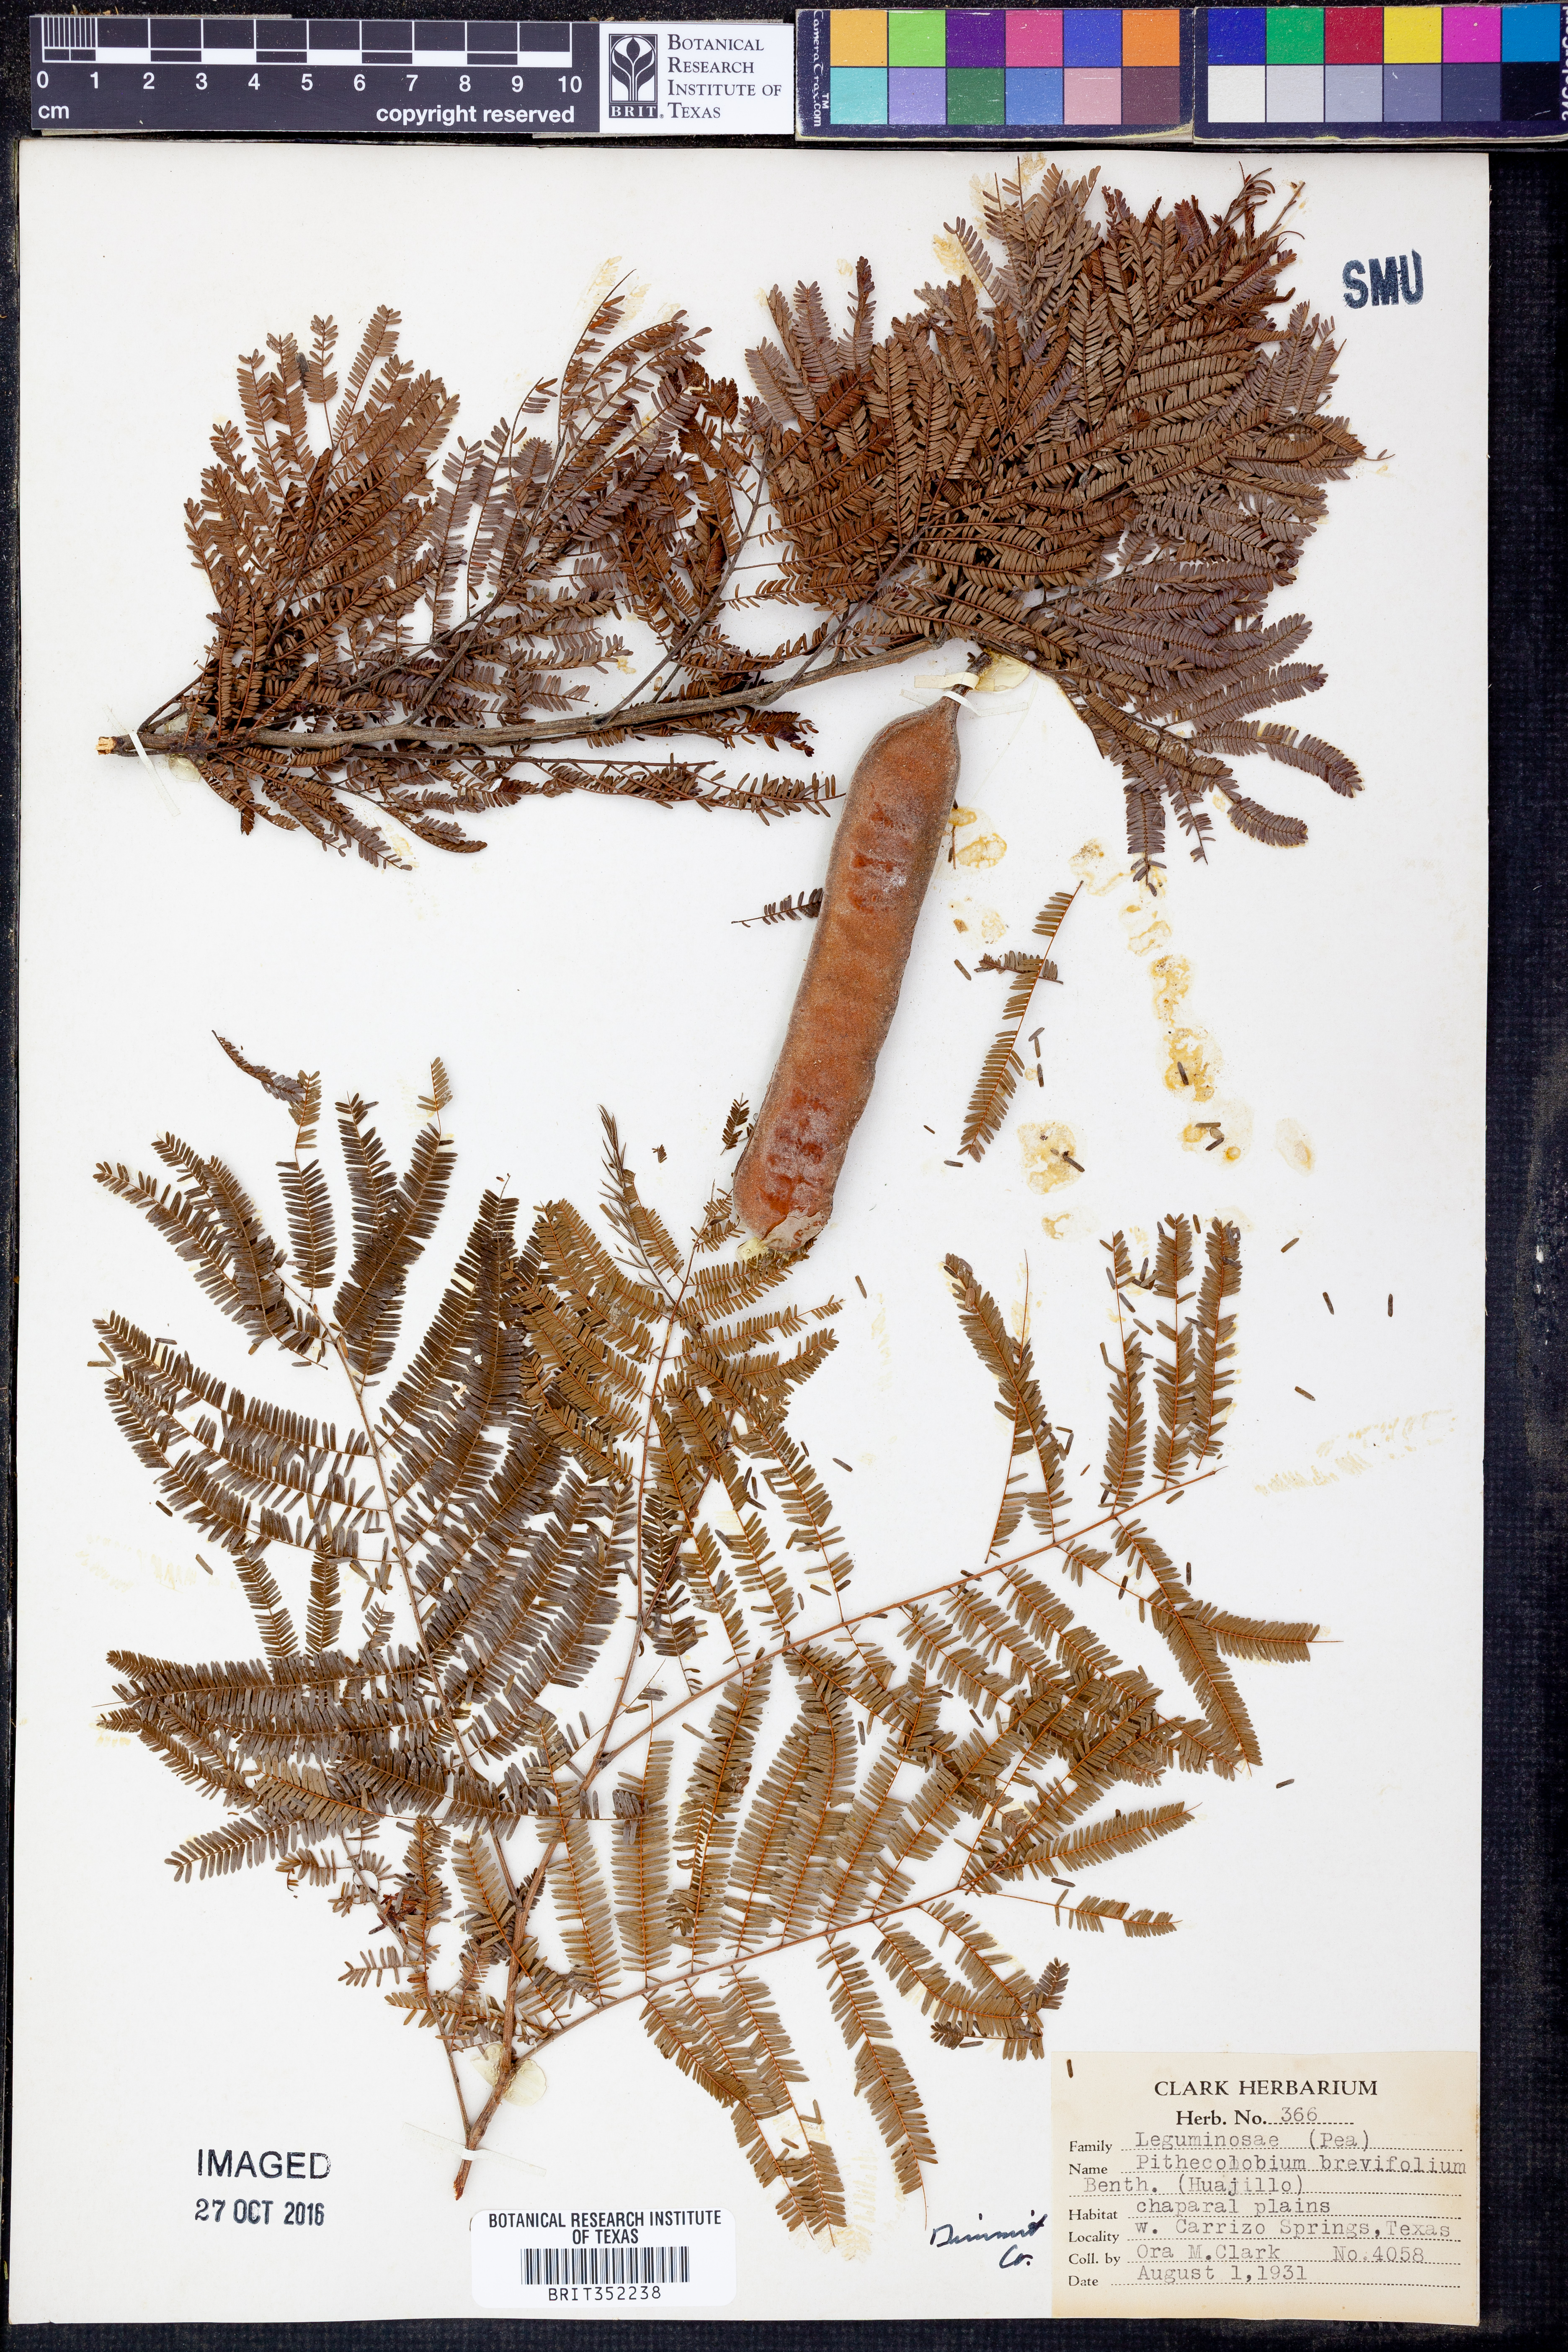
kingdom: Plantae
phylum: Tracheophyta
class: Magnoliopsida
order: Fabales
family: Fabaceae
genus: Havardia
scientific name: Havardia pallens
